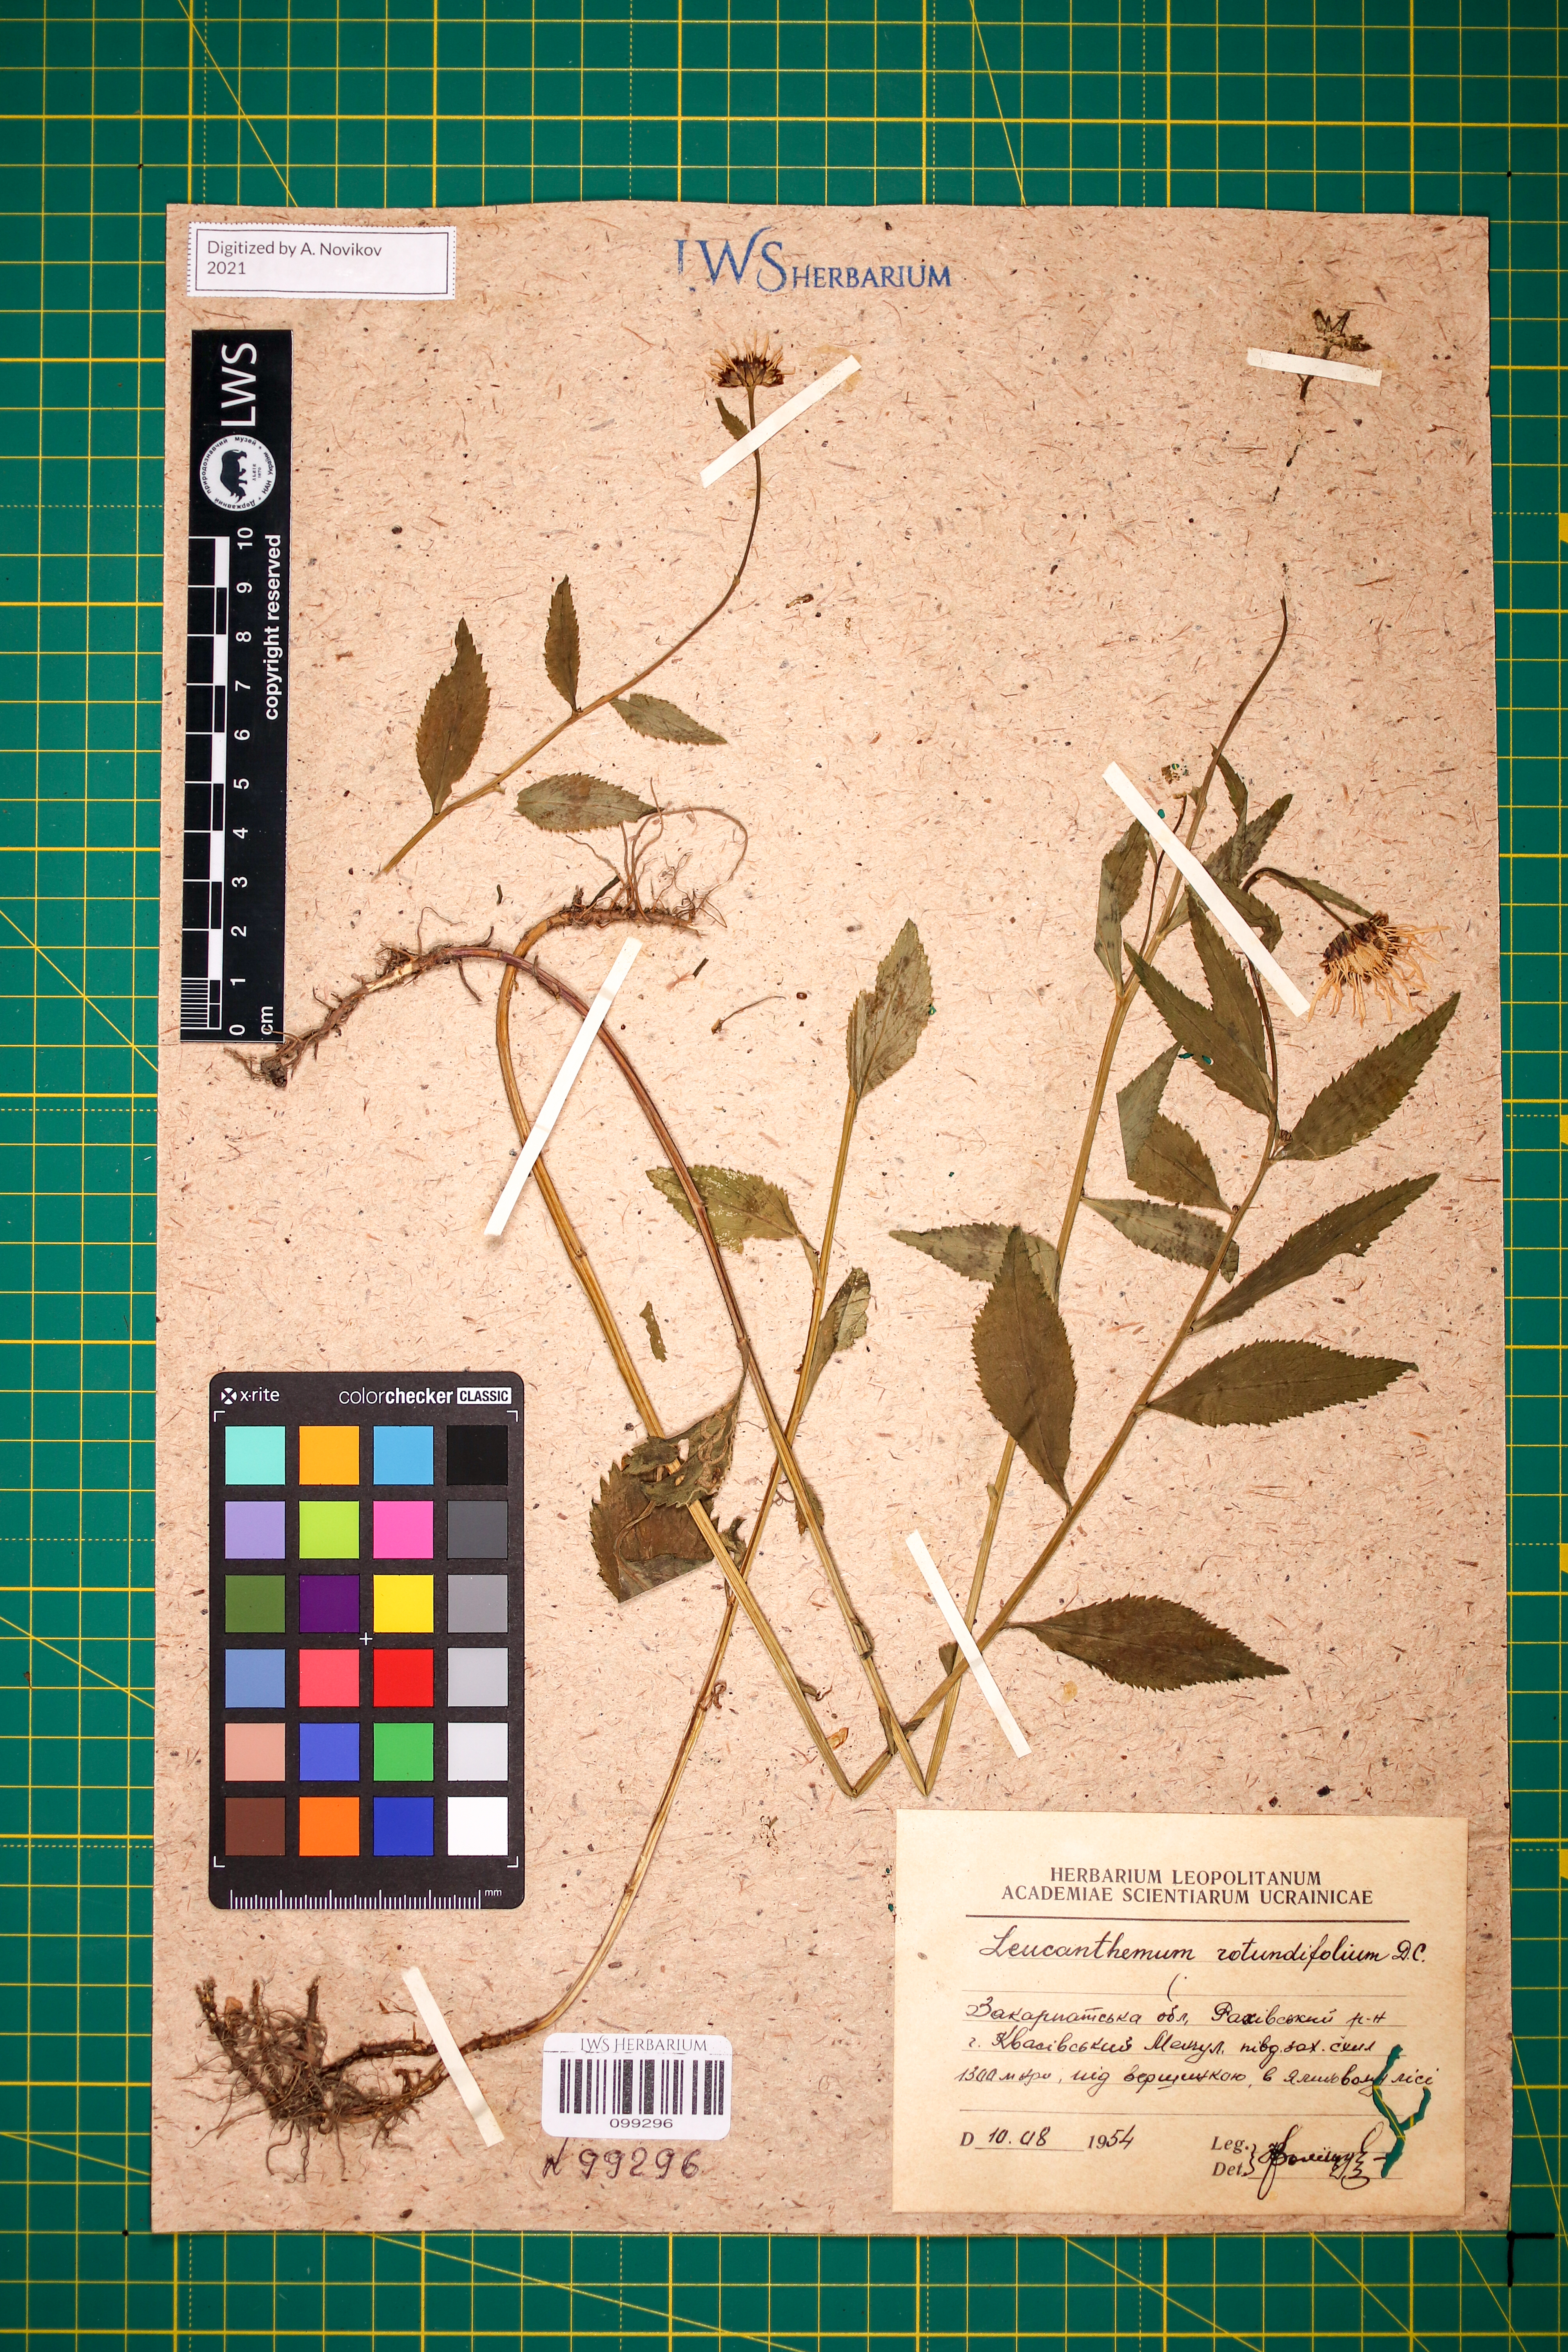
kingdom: Plantae
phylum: Tracheophyta
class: Magnoliopsida
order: Asterales
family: Asteraceae
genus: Leucanthemum
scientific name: Leucanthemum rotundifolium
